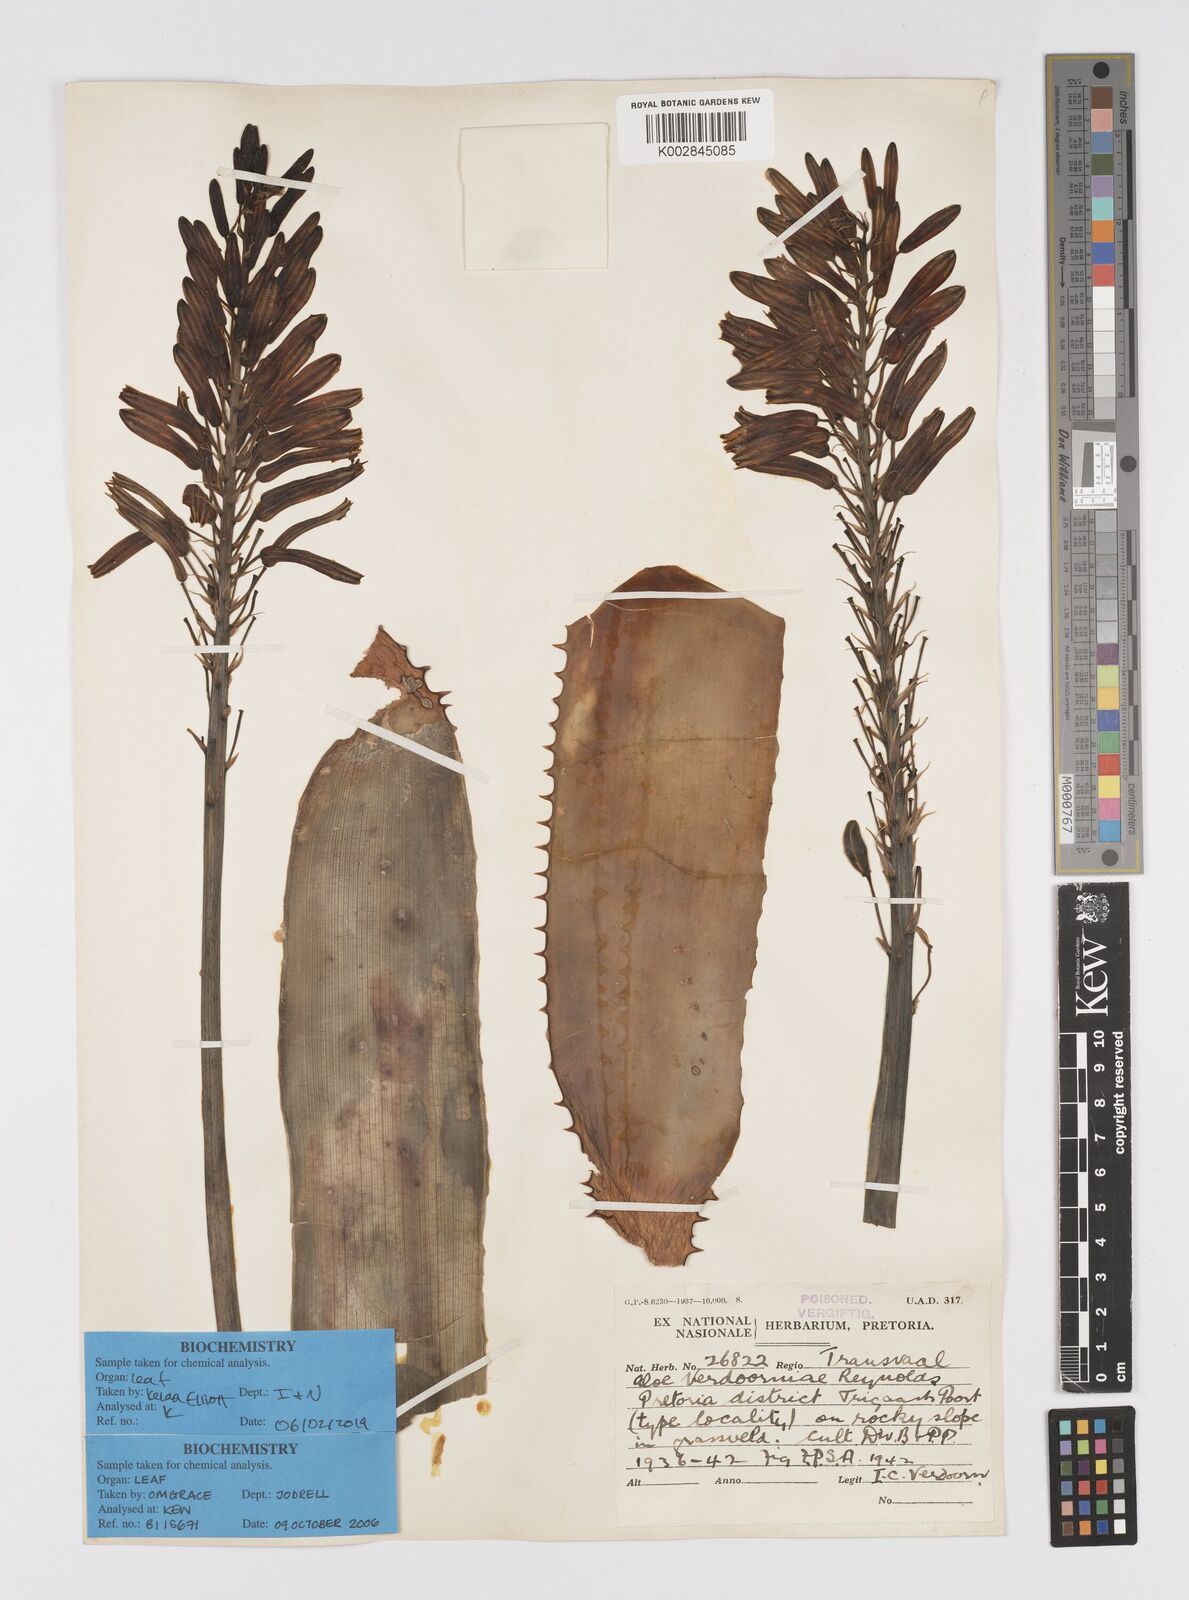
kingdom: Plantae
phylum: Tracheophyta
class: Liliopsida
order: Asparagales
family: Asphodelaceae
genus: Aloe
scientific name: Aloe davyana
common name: Spotted aloe
